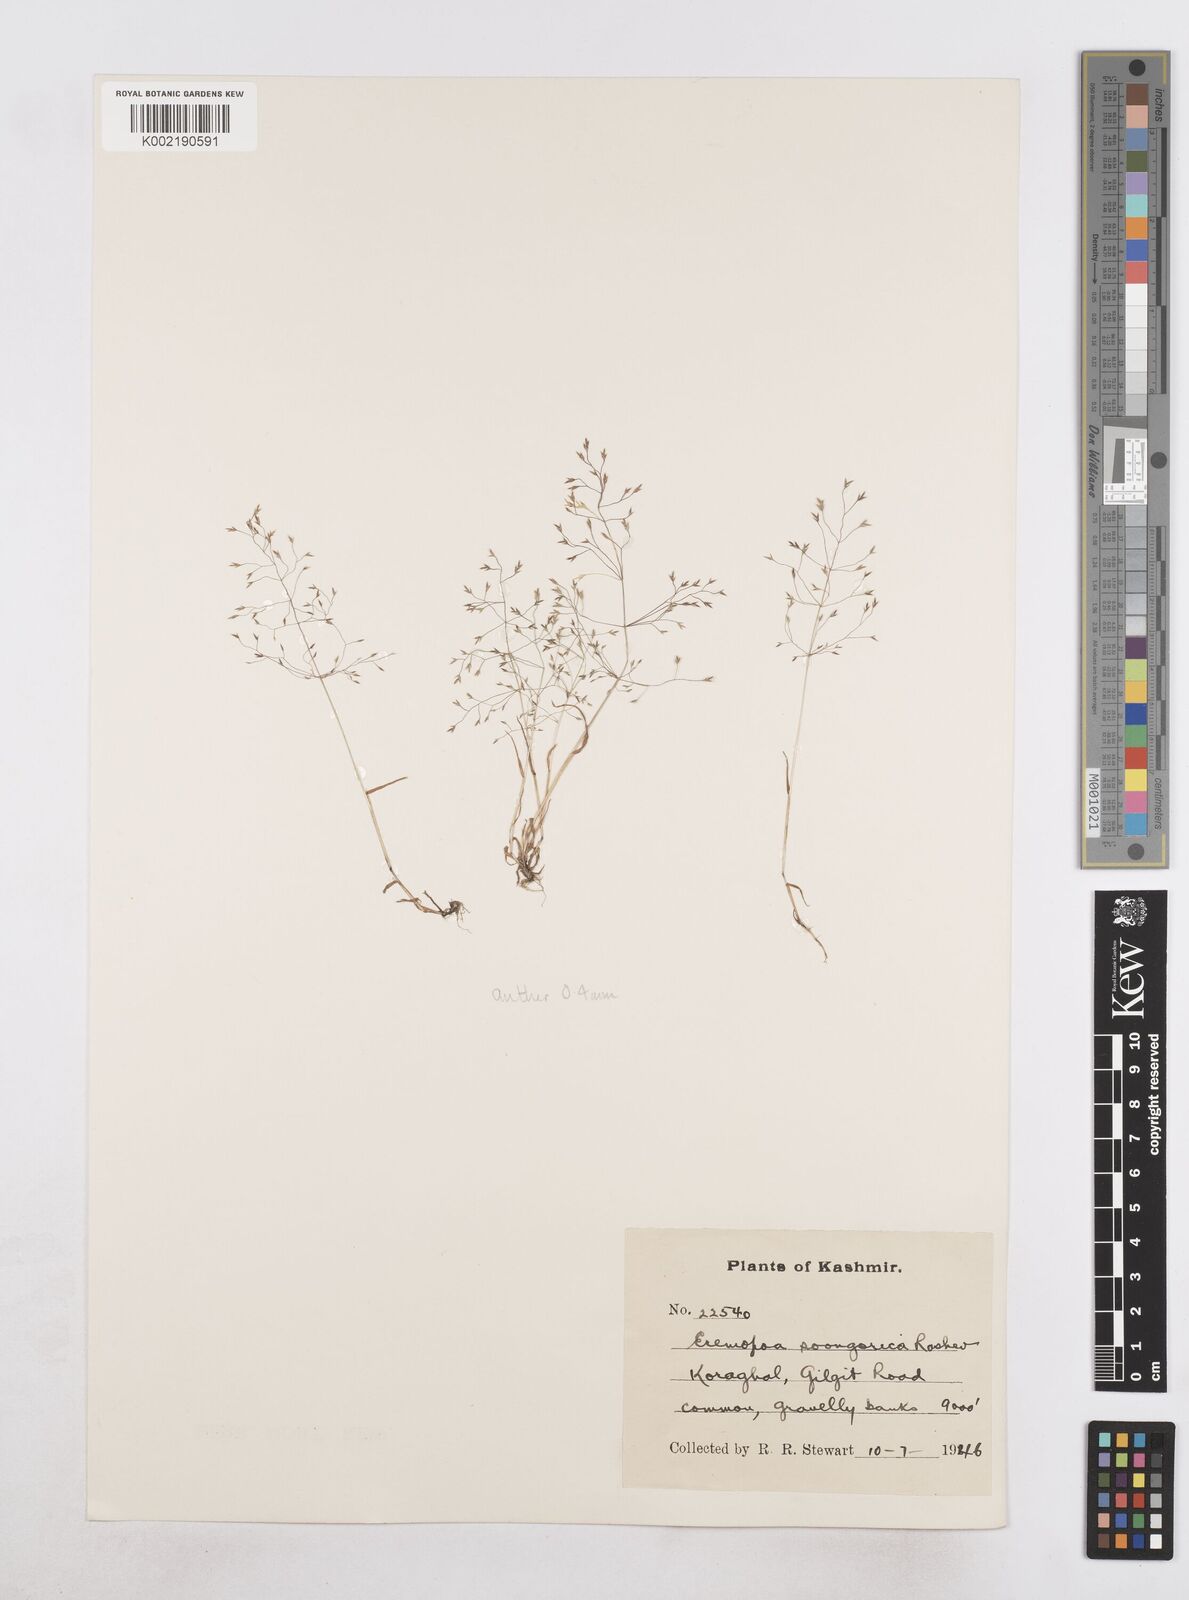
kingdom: Plantae
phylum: Tracheophyta
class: Liliopsida
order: Poales
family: Poaceae
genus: Poa
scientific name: Poa diaphora
